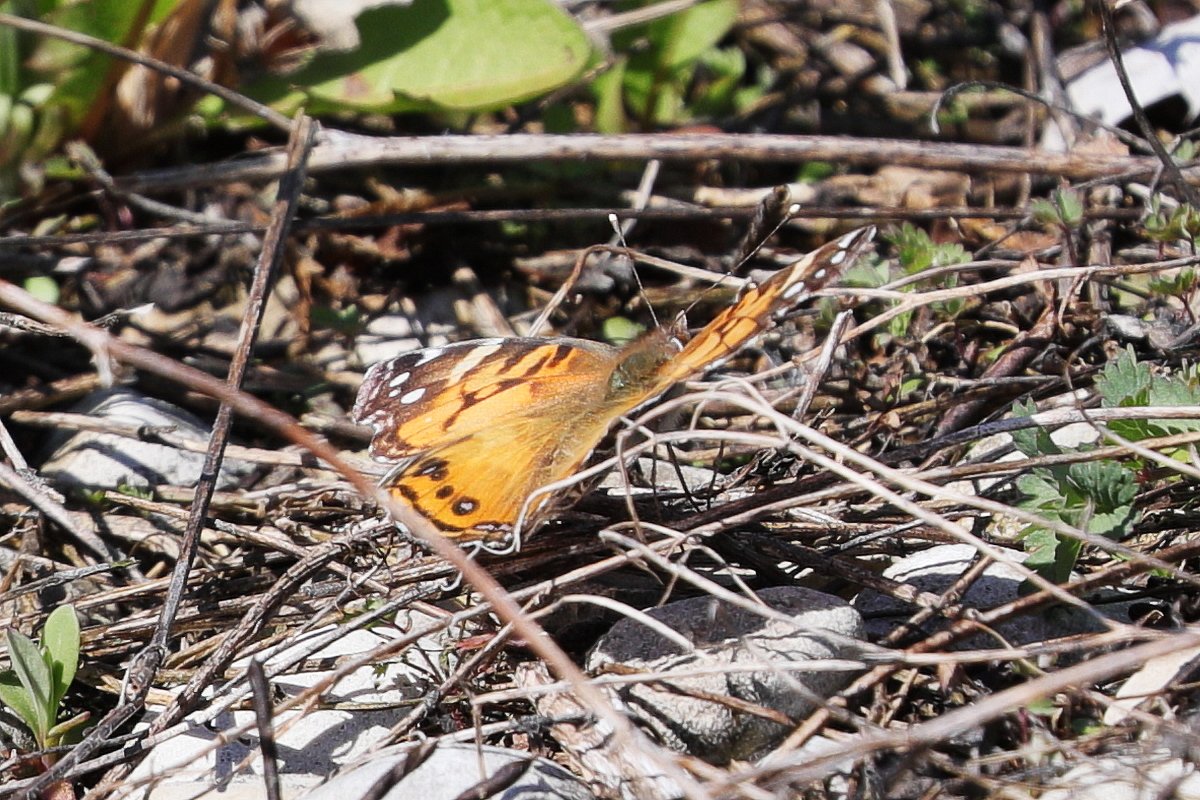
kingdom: Animalia
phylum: Arthropoda
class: Insecta
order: Lepidoptera
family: Nymphalidae
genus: Vanessa
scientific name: Vanessa virginiensis
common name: American Lady
